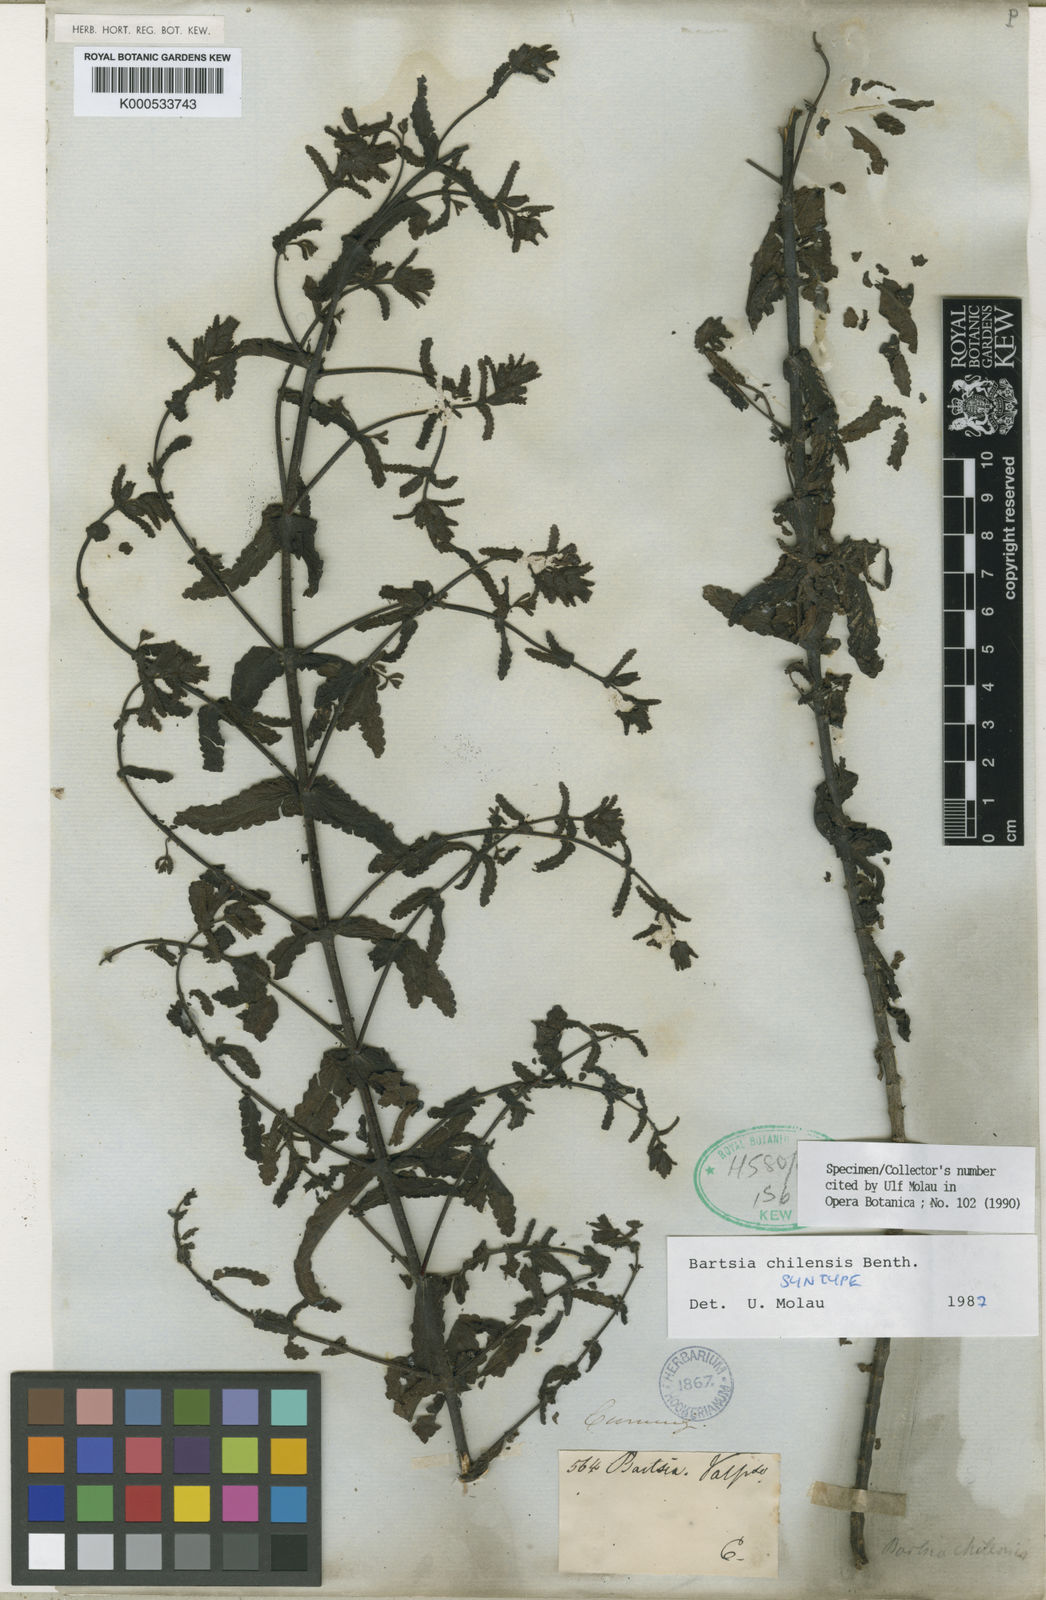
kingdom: Plantae
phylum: Tracheophyta
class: Magnoliopsida
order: Lamiales
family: Orobanchaceae
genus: Neobartsia
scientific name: Neobartsia chilensis
